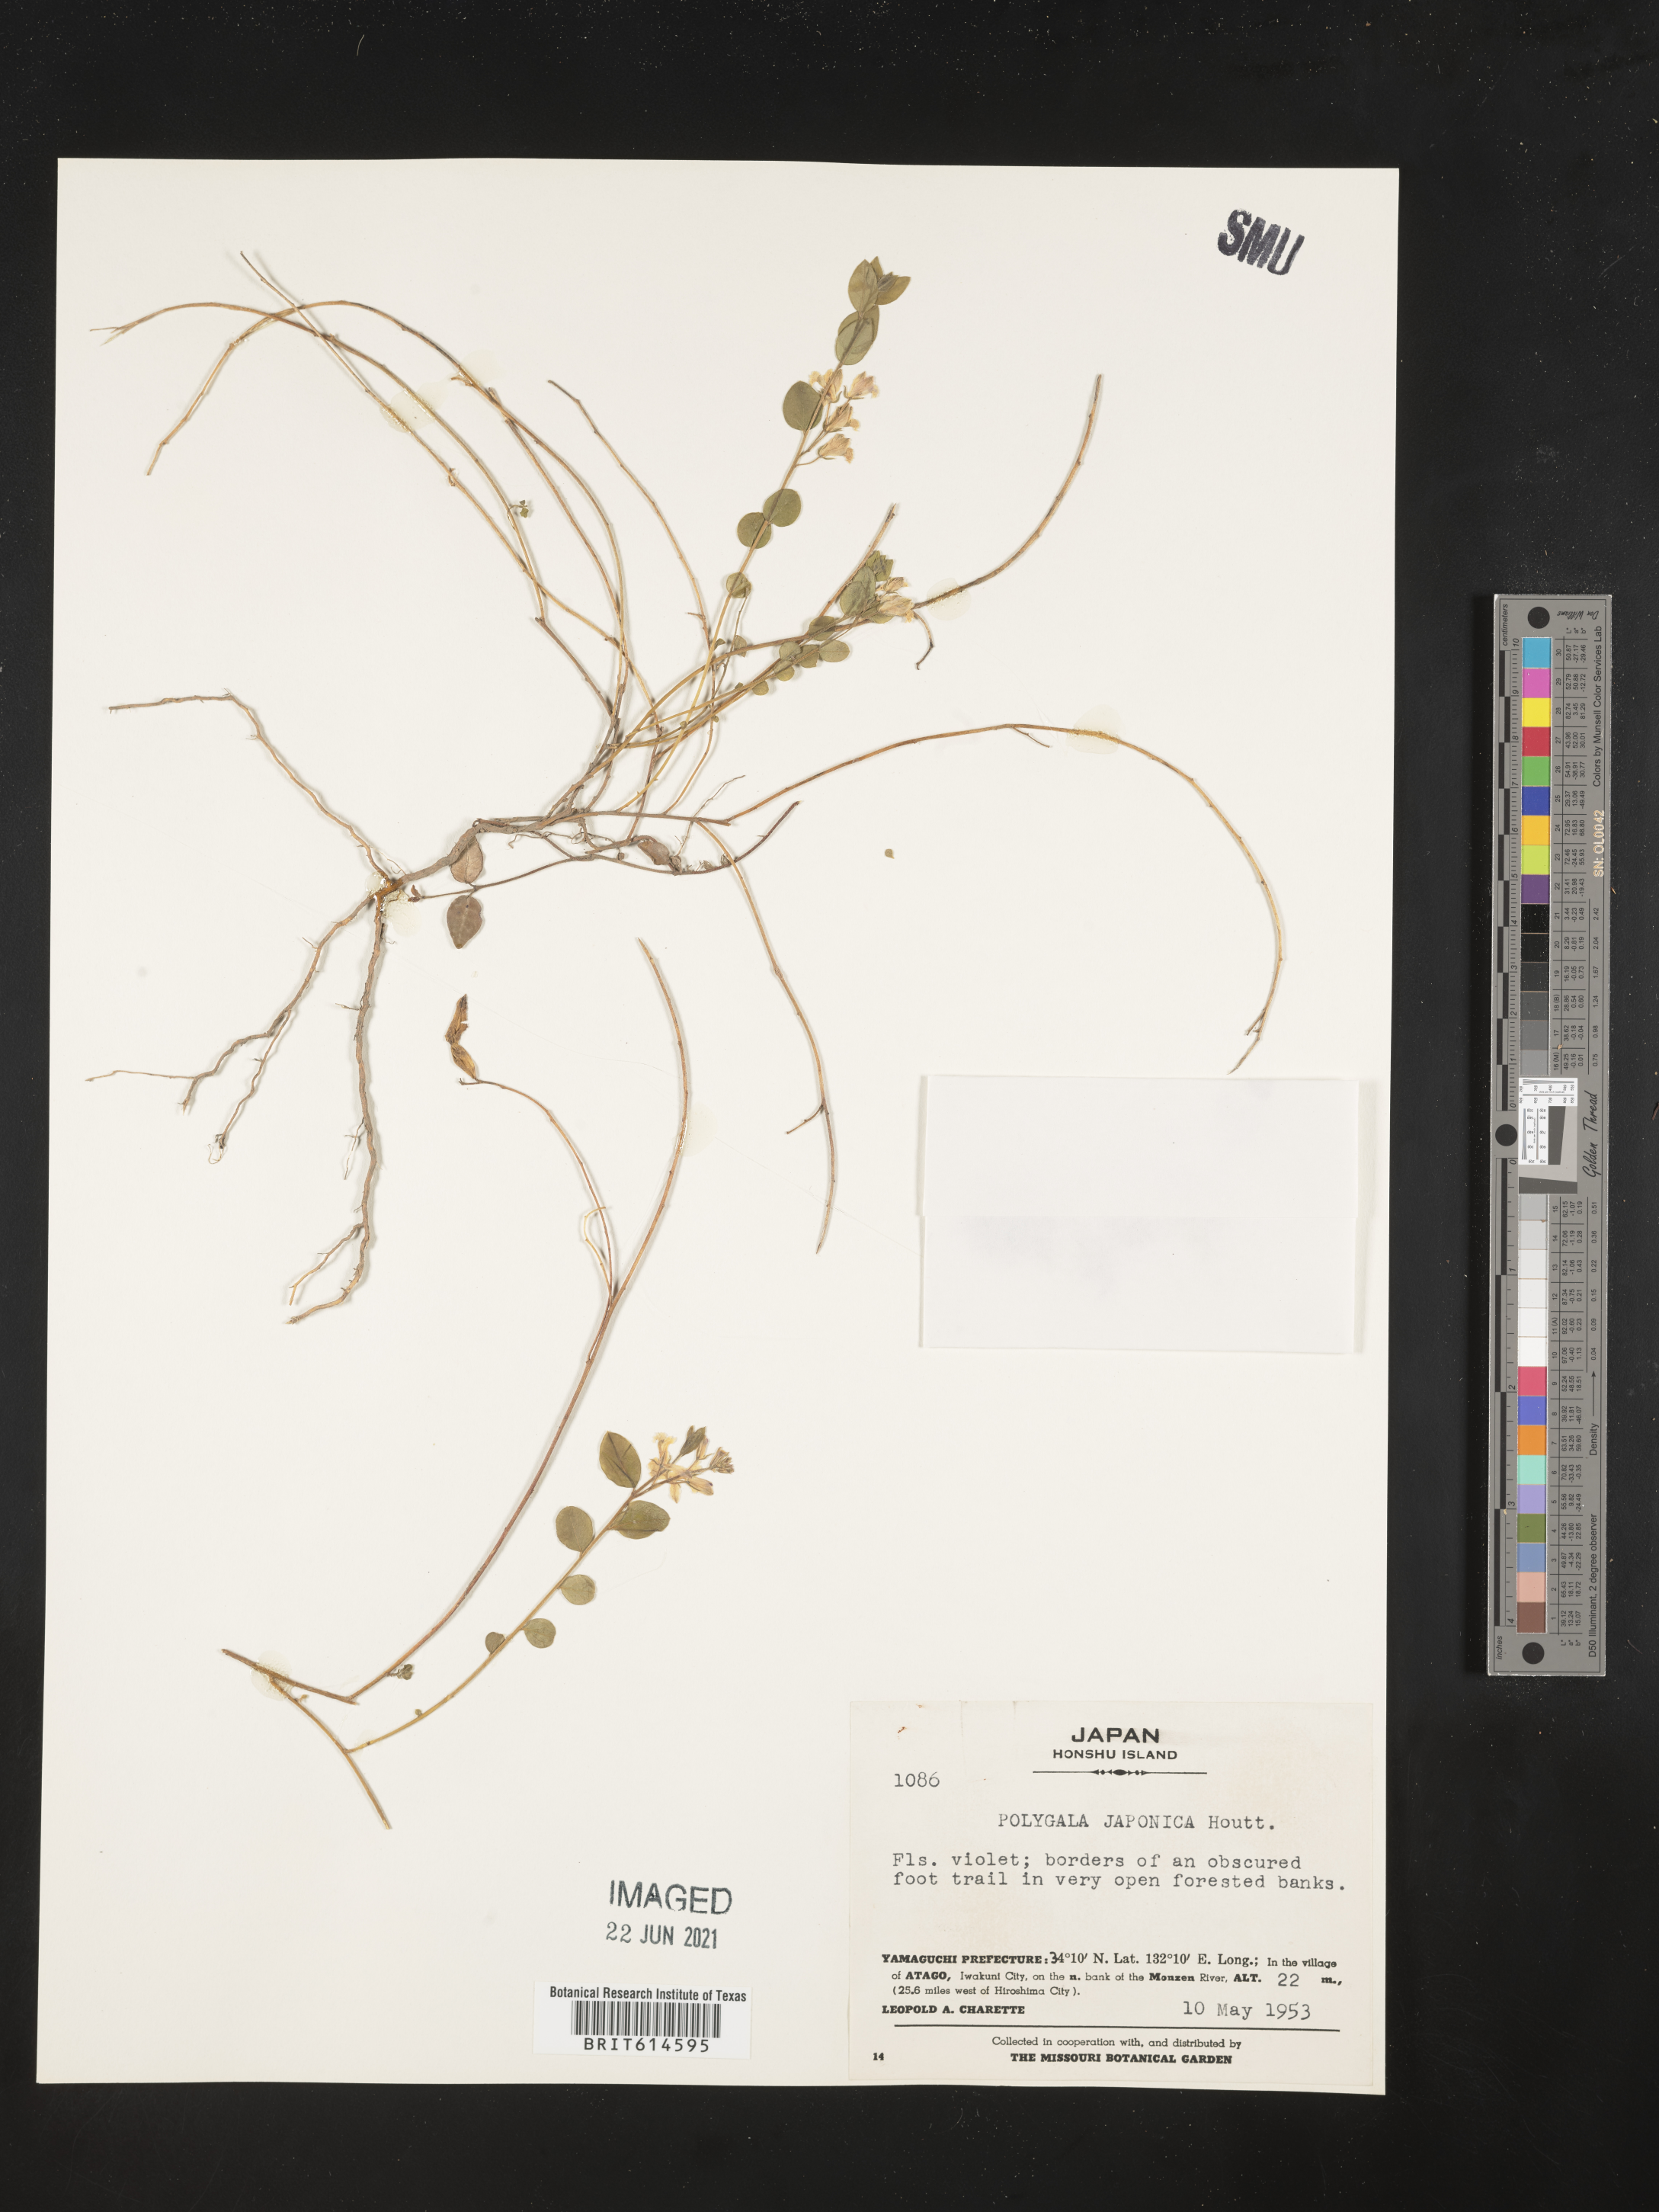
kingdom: Plantae
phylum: Tracheophyta
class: Magnoliopsida
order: Fabales
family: Polygalaceae
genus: Polygala
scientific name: Polygala japonica
